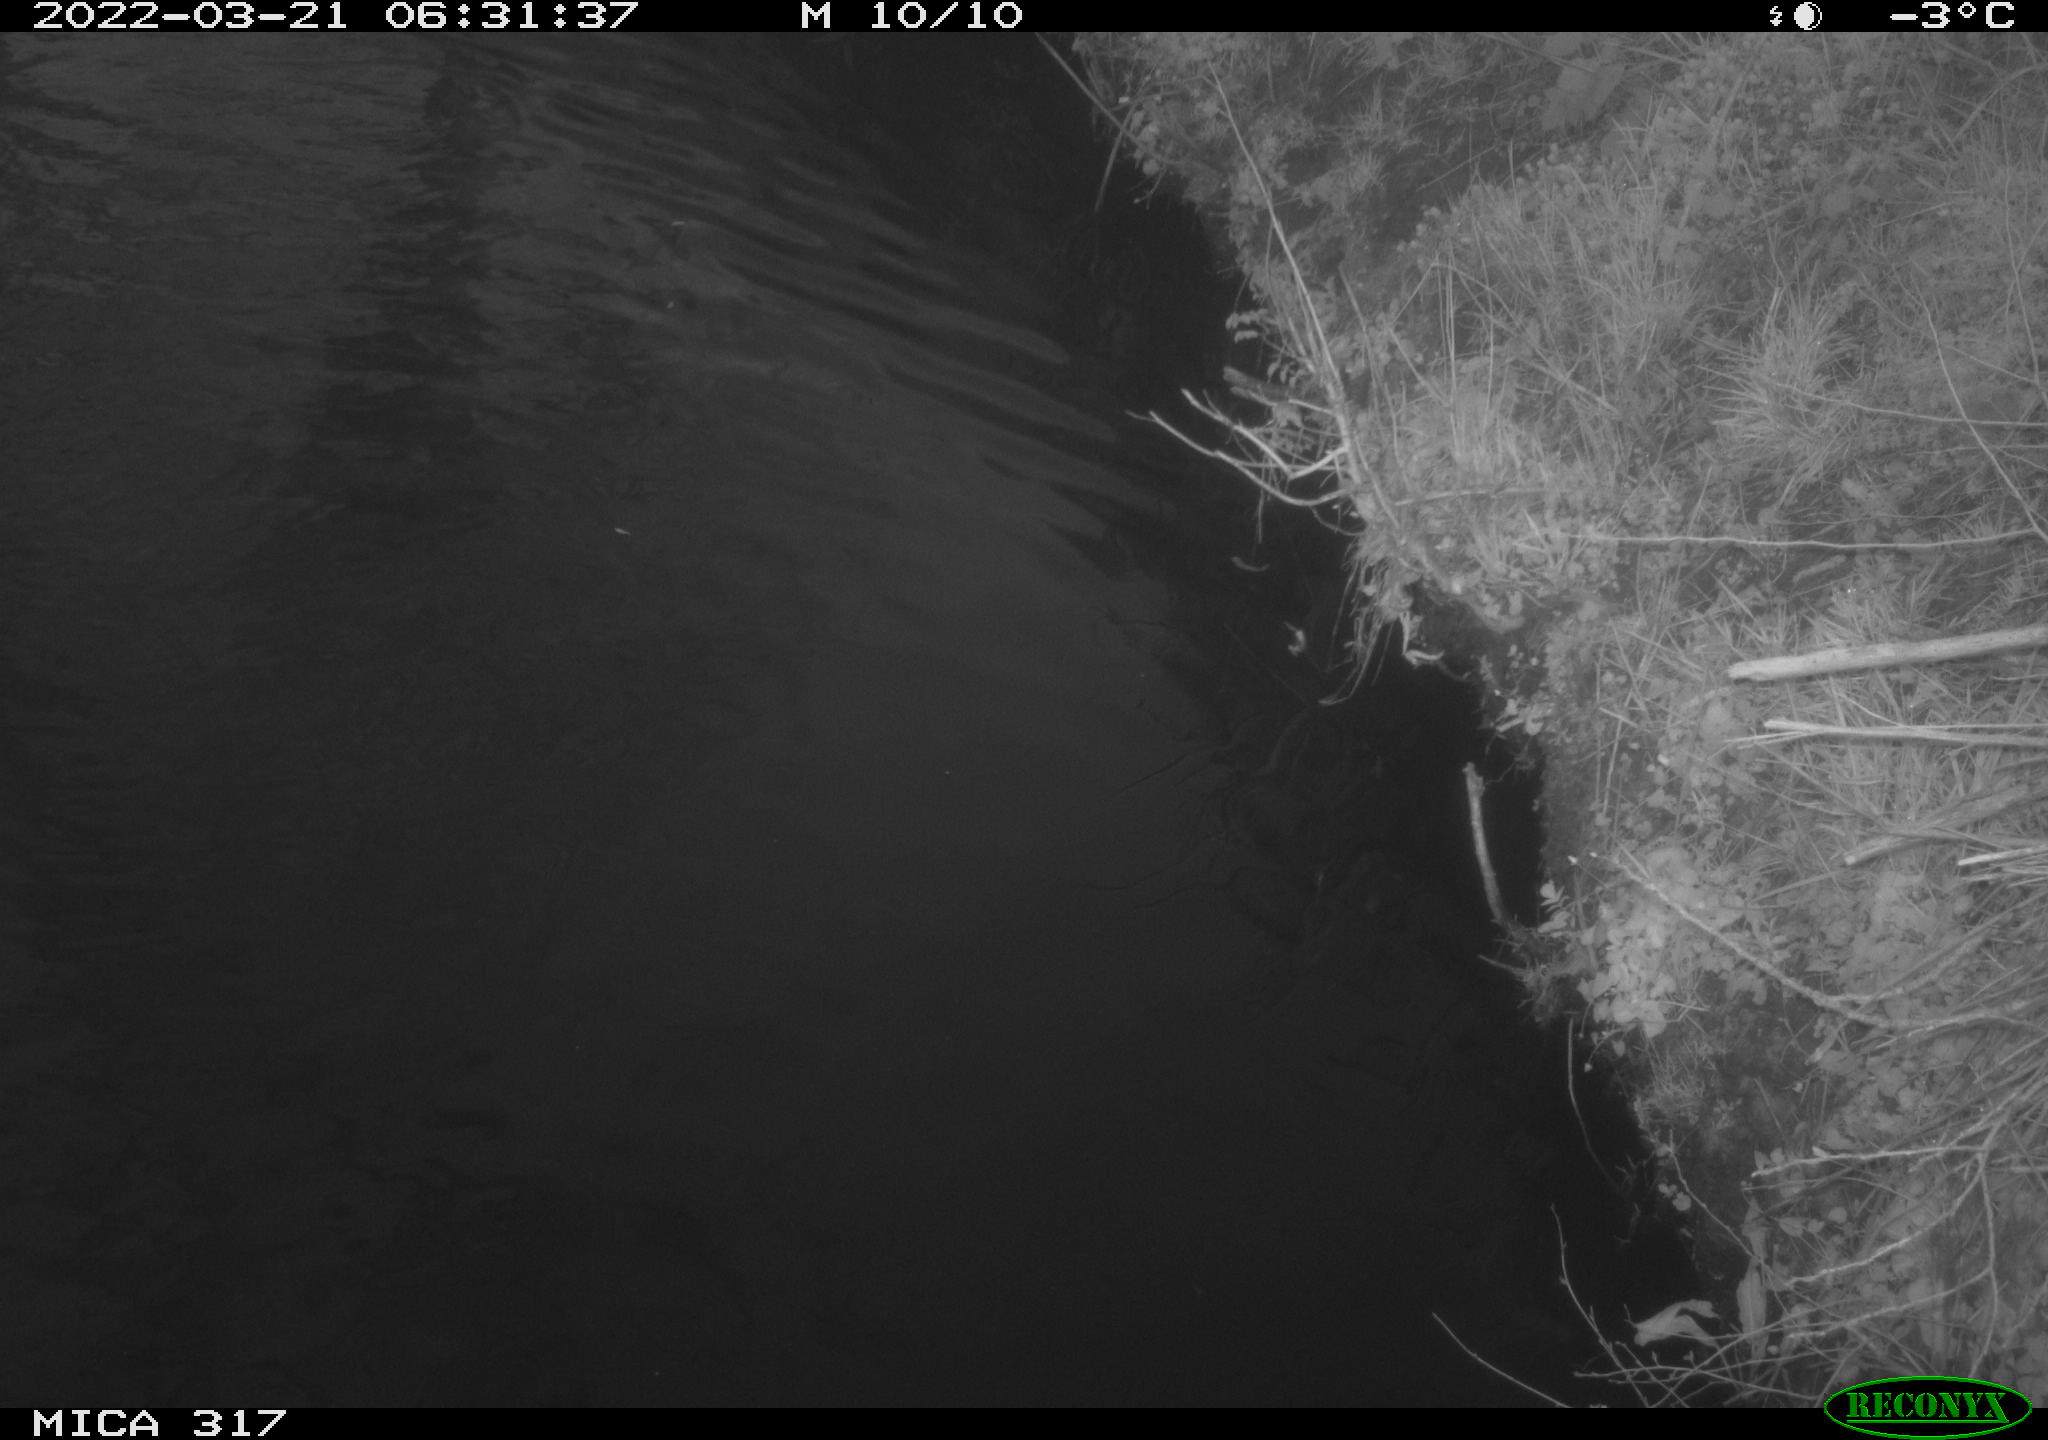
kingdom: Animalia
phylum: Chordata
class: Aves
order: Anseriformes
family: Anatidae
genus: Anas
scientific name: Anas platyrhynchos
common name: Mallard
